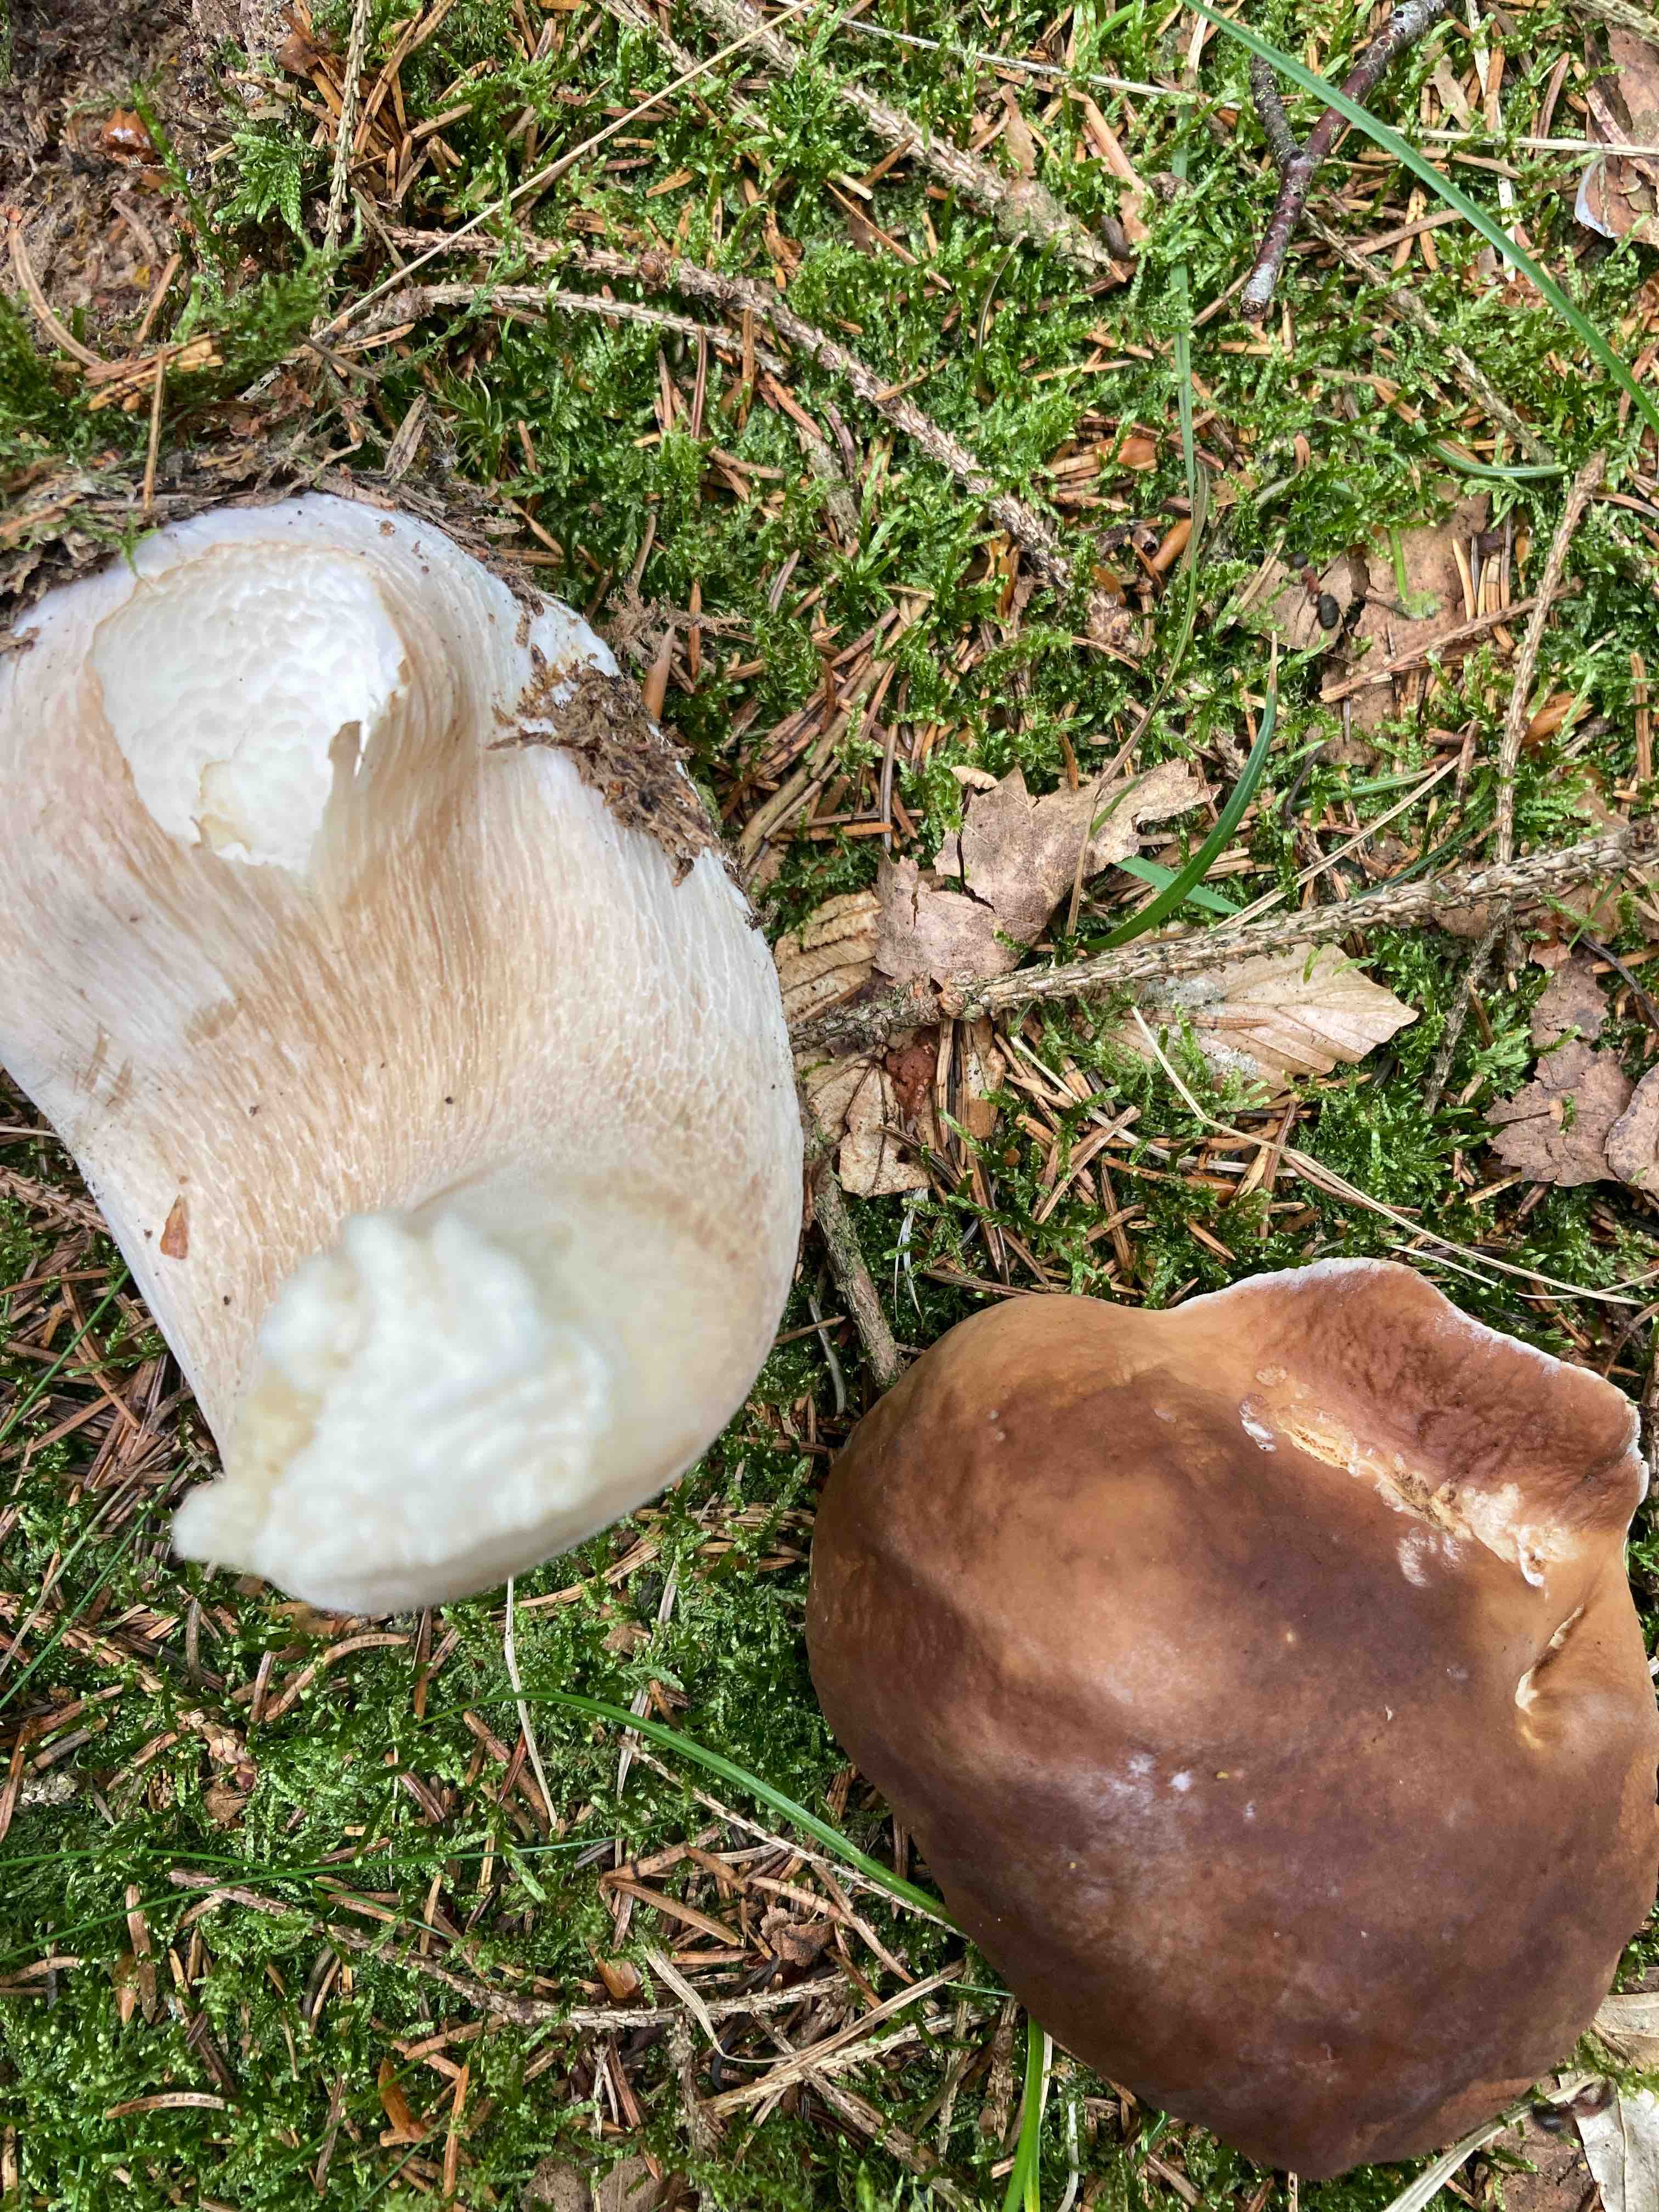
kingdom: Fungi
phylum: Basidiomycota
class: Agaricomycetes
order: Boletales
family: Boletaceae
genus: Boletus
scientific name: Boletus edulis
